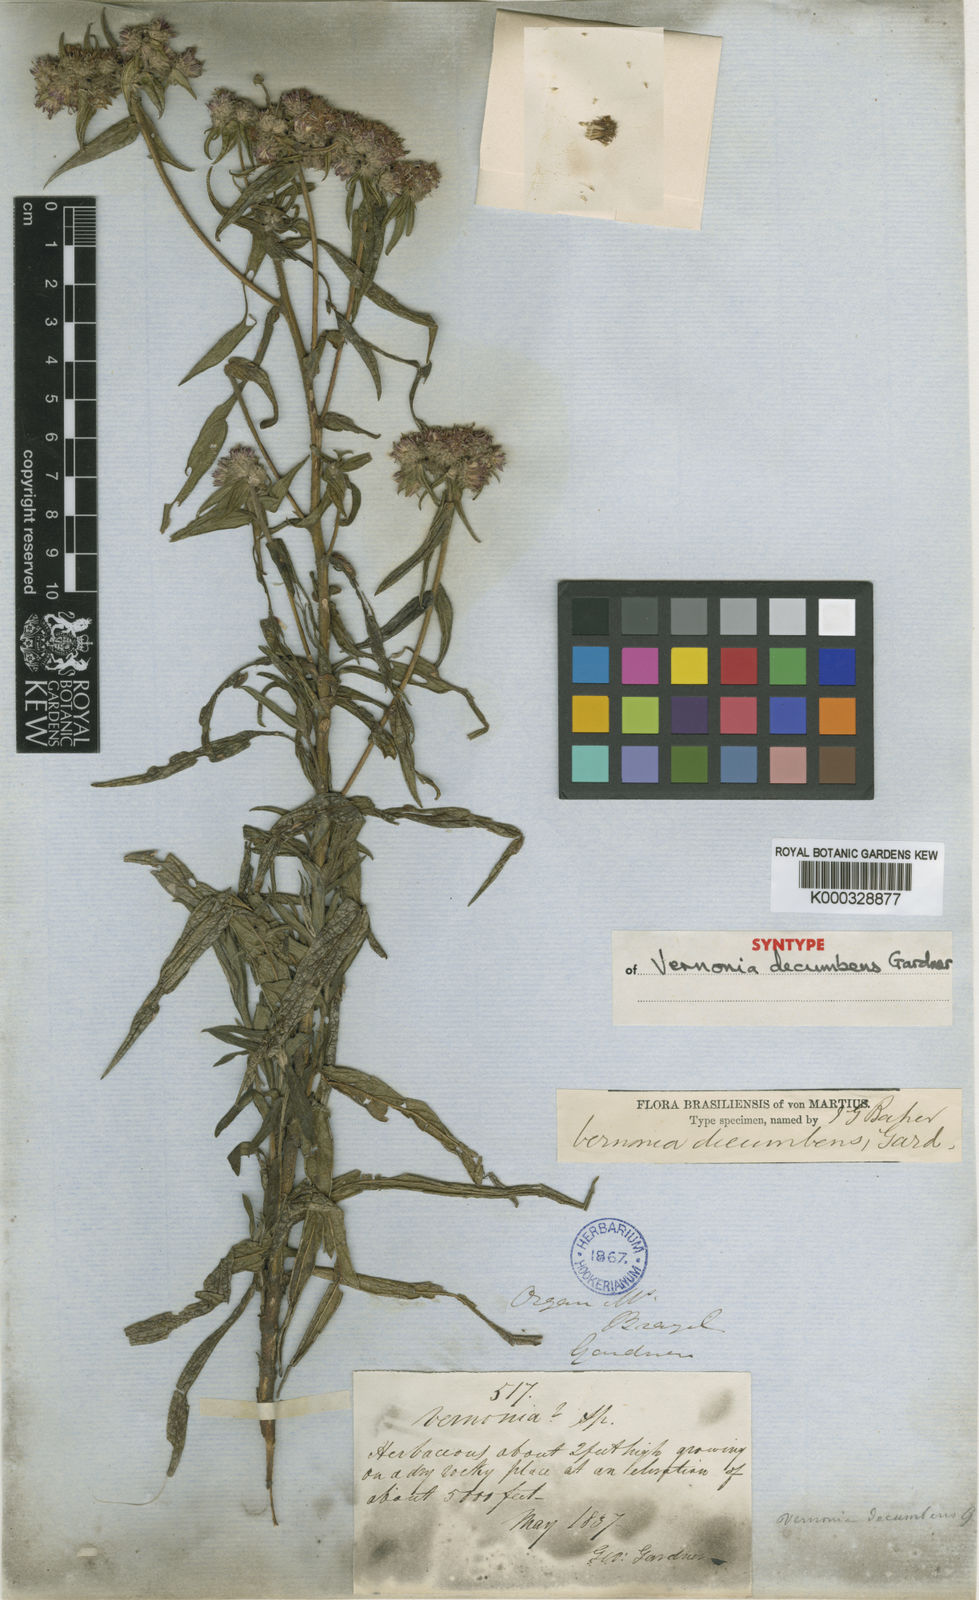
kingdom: Plantae
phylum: Tracheophyta
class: Magnoliopsida
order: Asterales
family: Asteraceae
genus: Lepidaploa
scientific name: Lepidaploa decumbens
